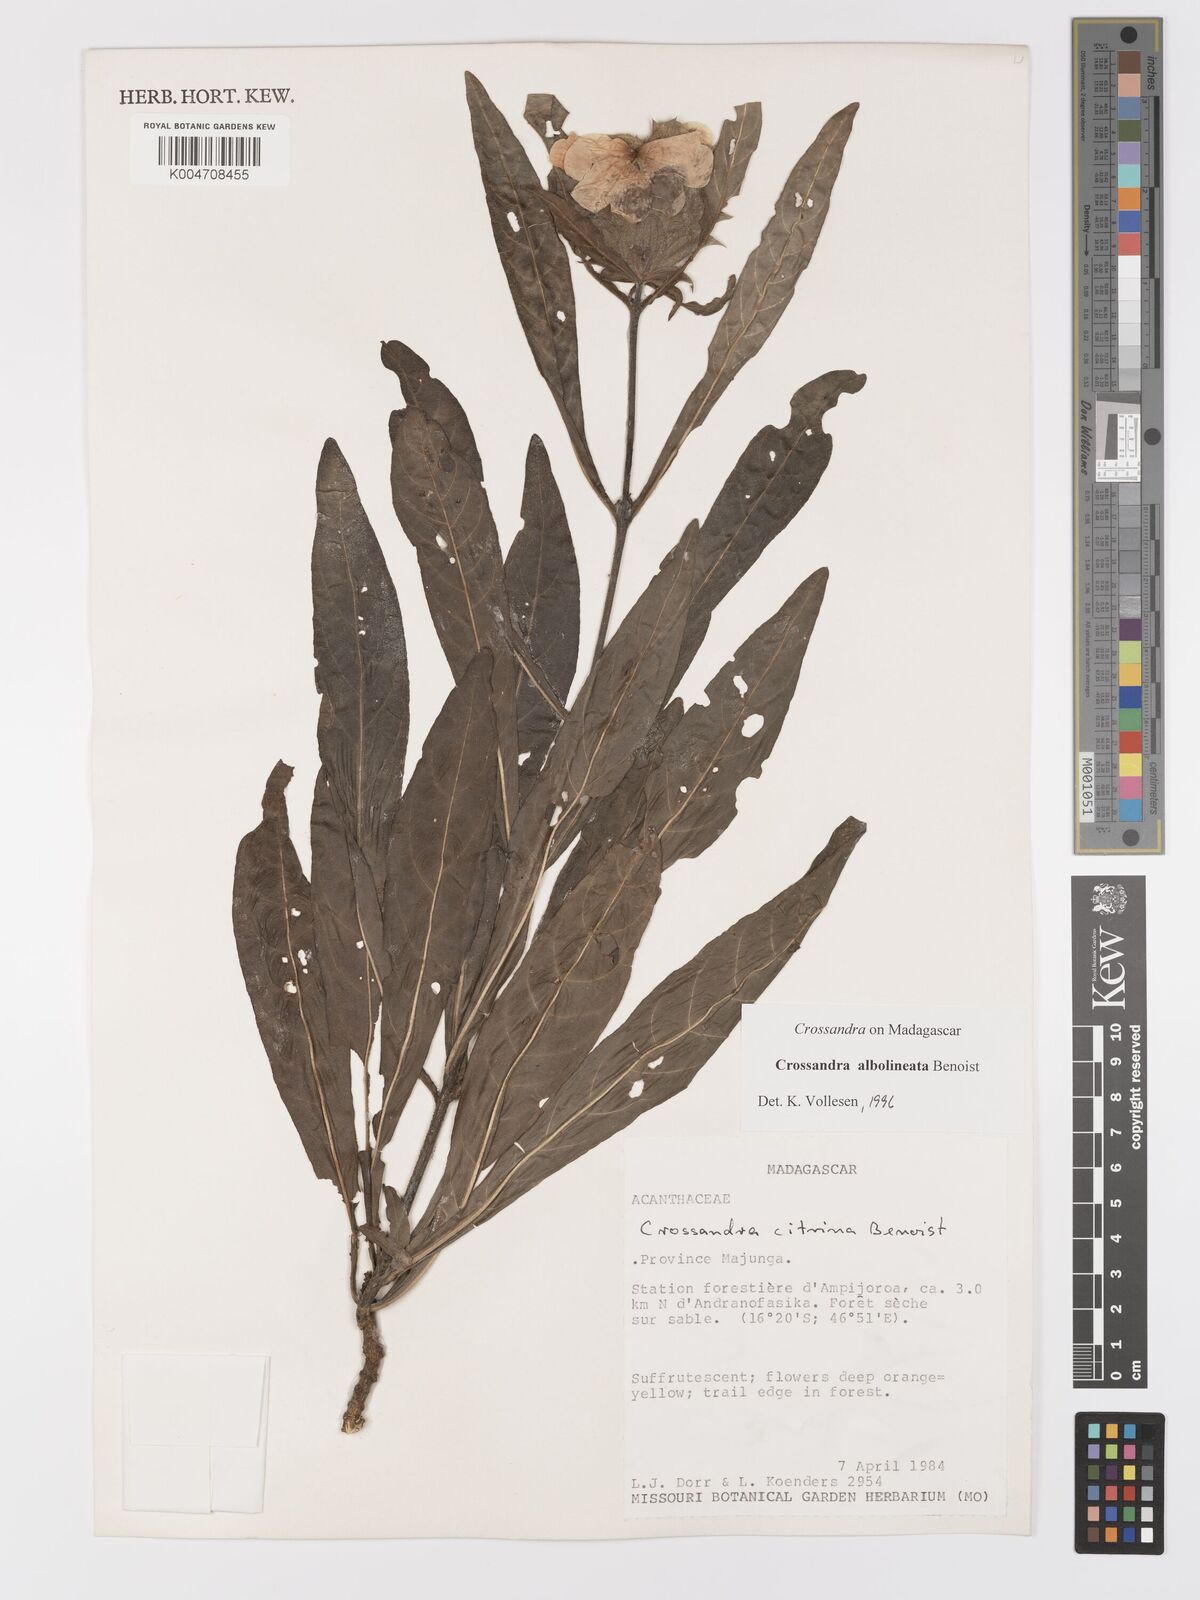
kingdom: Plantae
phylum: Tracheophyta
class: Magnoliopsida
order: Lamiales
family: Acanthaceae
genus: Crossandra
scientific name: Crossandra albolineata
